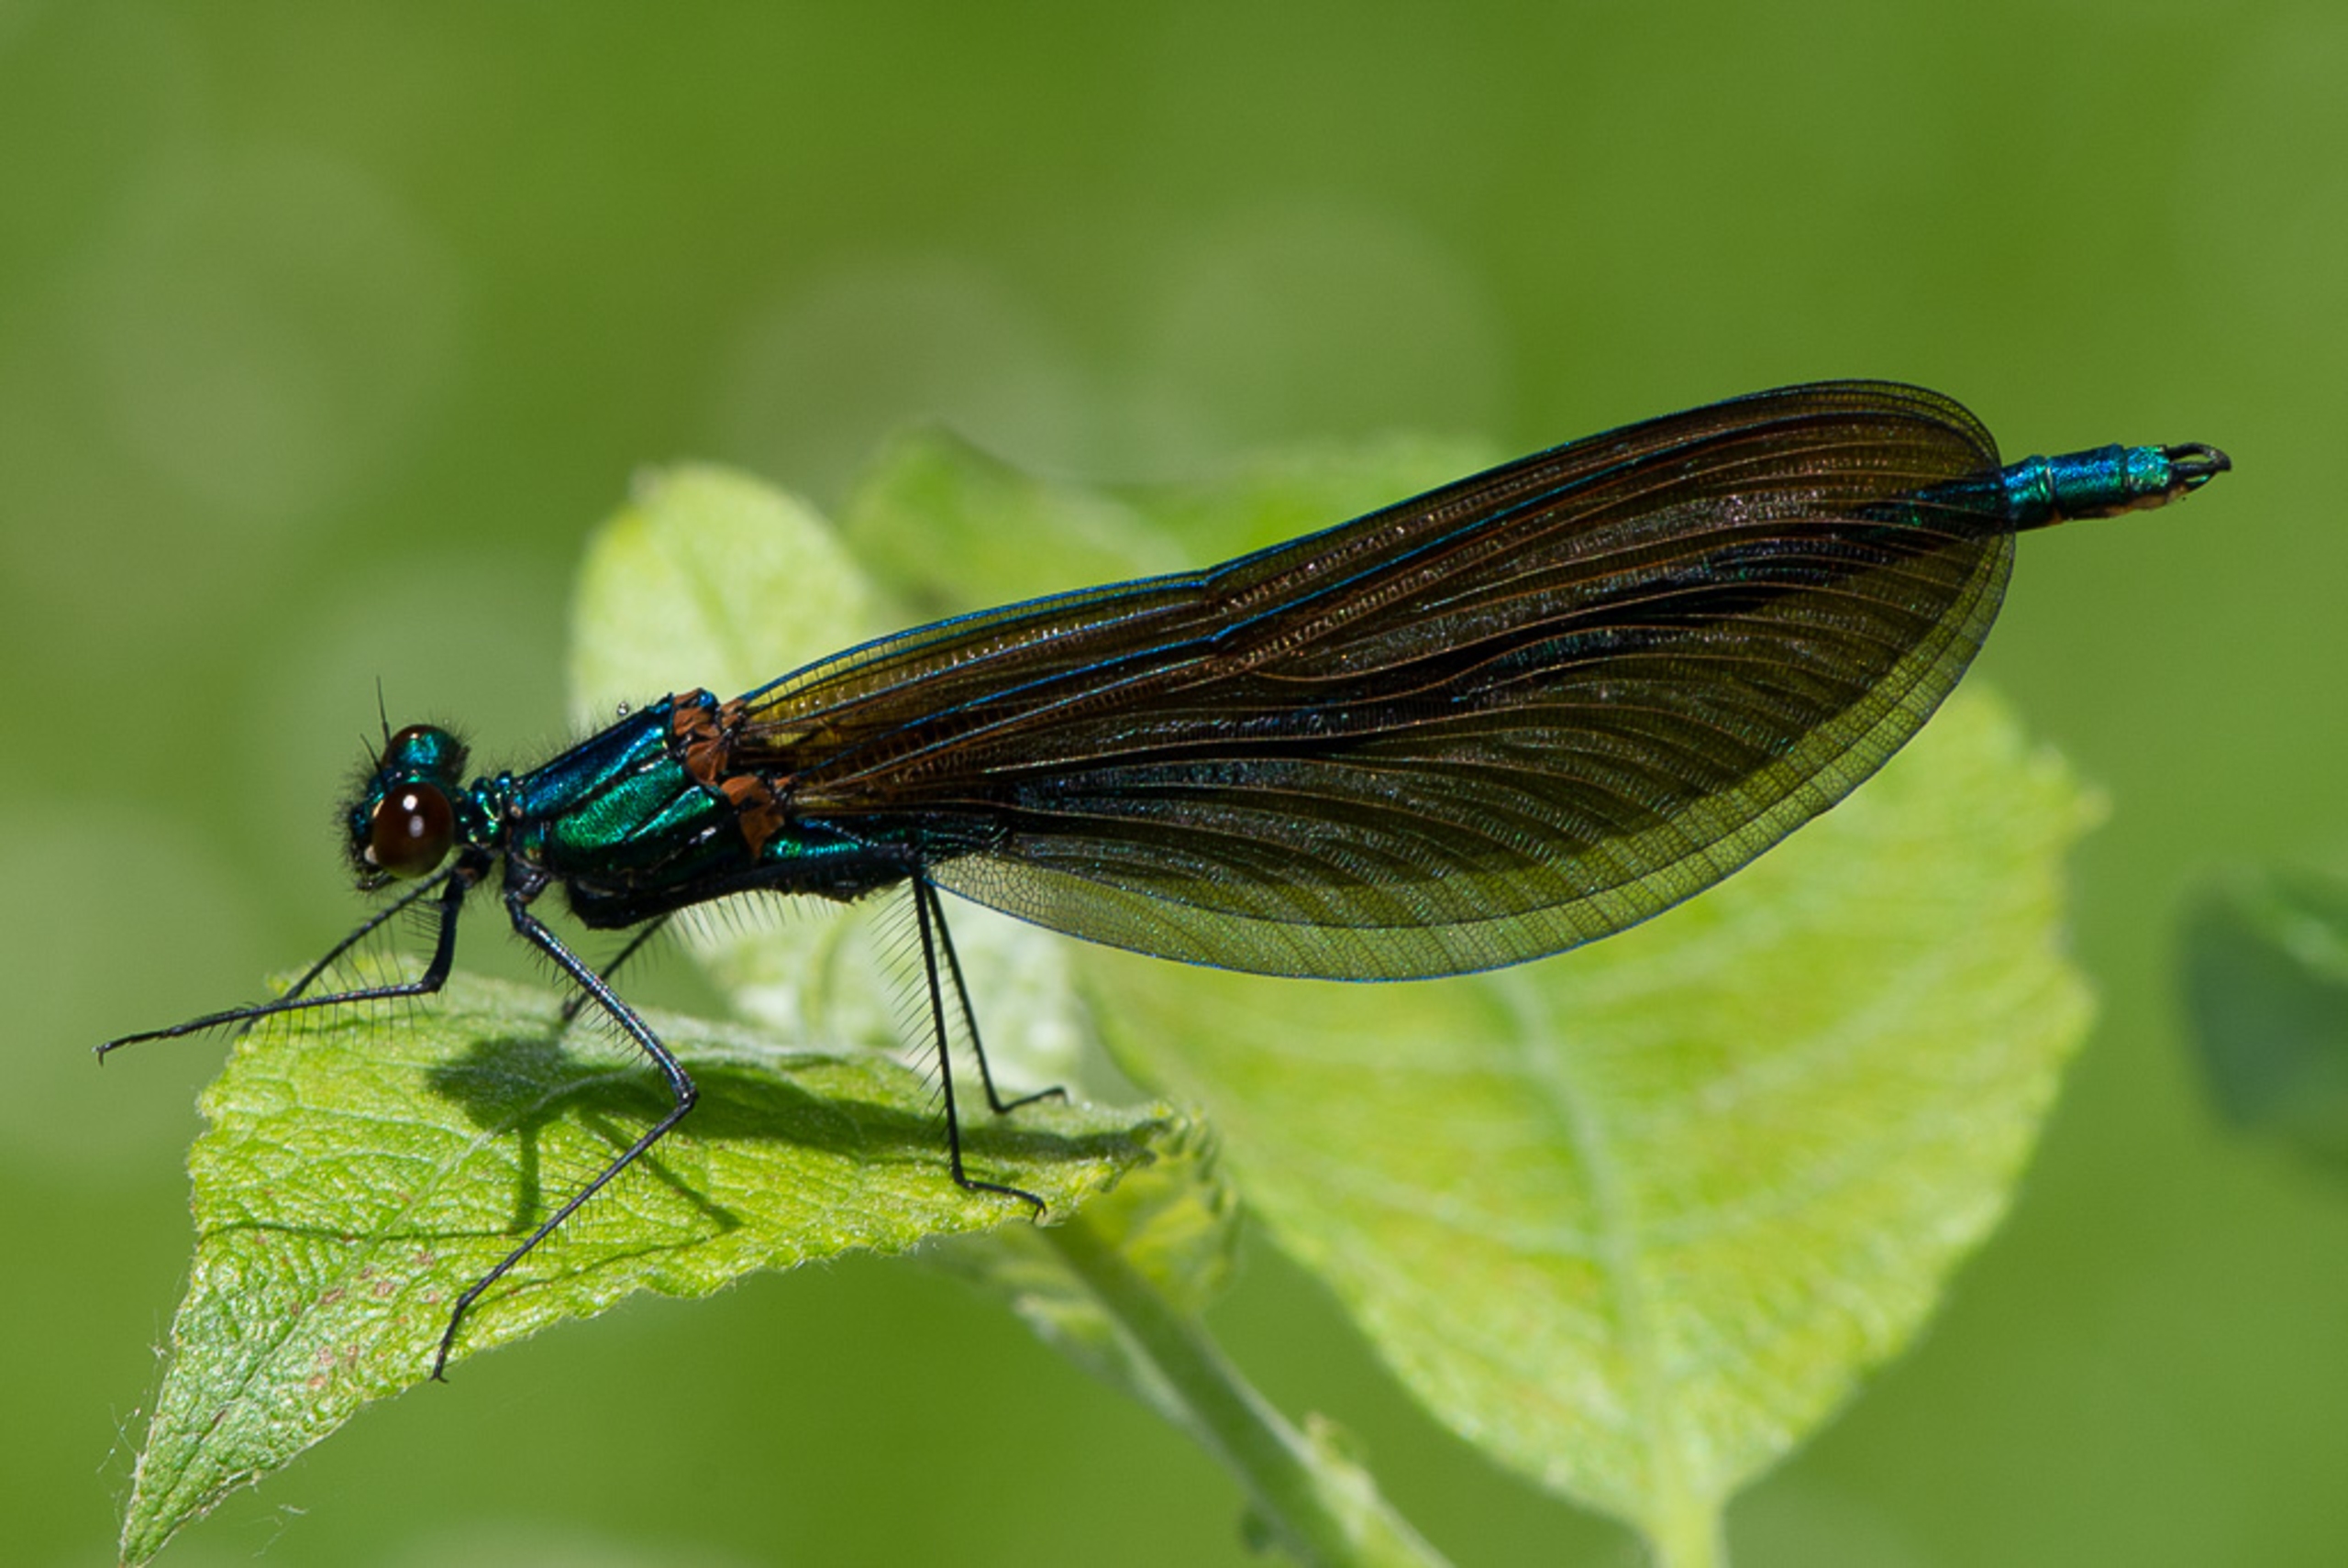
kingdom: Animalia
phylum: Arthropoda
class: Insecta
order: Odonata
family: Calopterygidae
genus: Calopteryx
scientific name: Calopteryx virgo
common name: Blåvinget pragtvandnymfe
